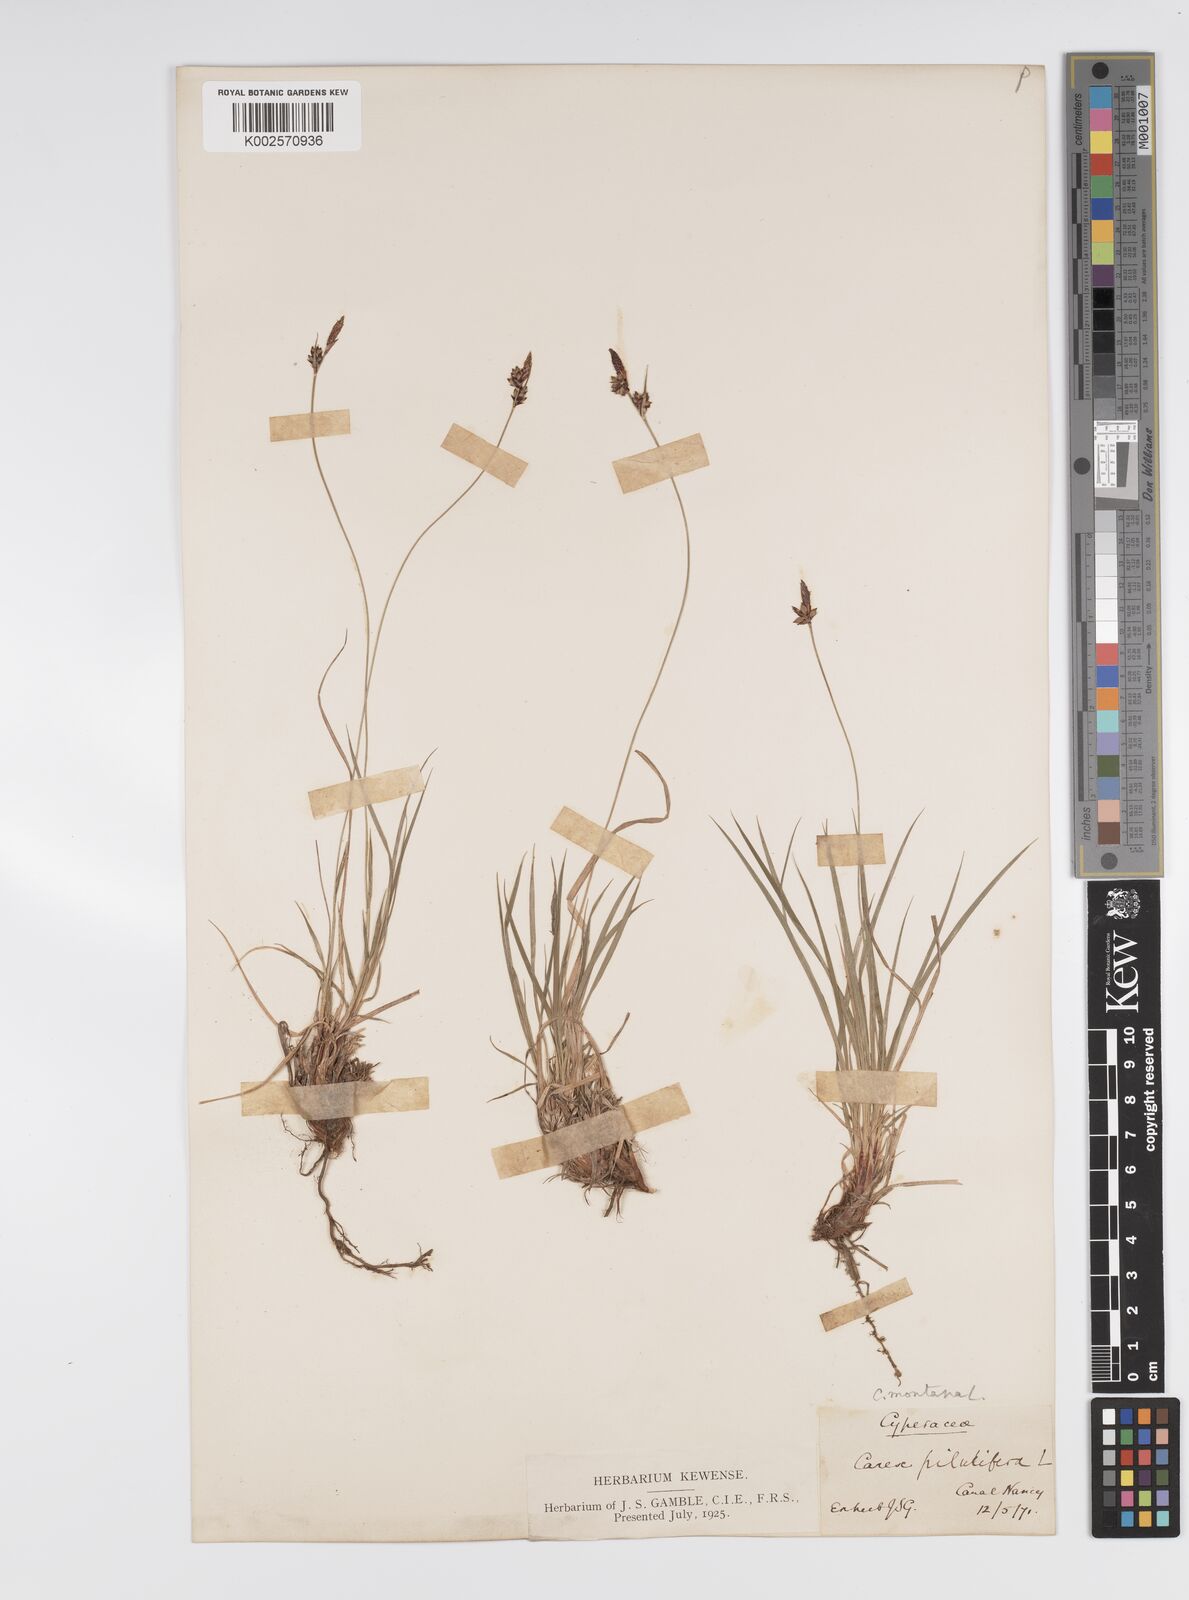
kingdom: Plantae
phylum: Tracheophyta
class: Liliopsida
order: Poales
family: Cyperaceae
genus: Carex
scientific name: Carex montana
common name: Soft-leaved sedge
